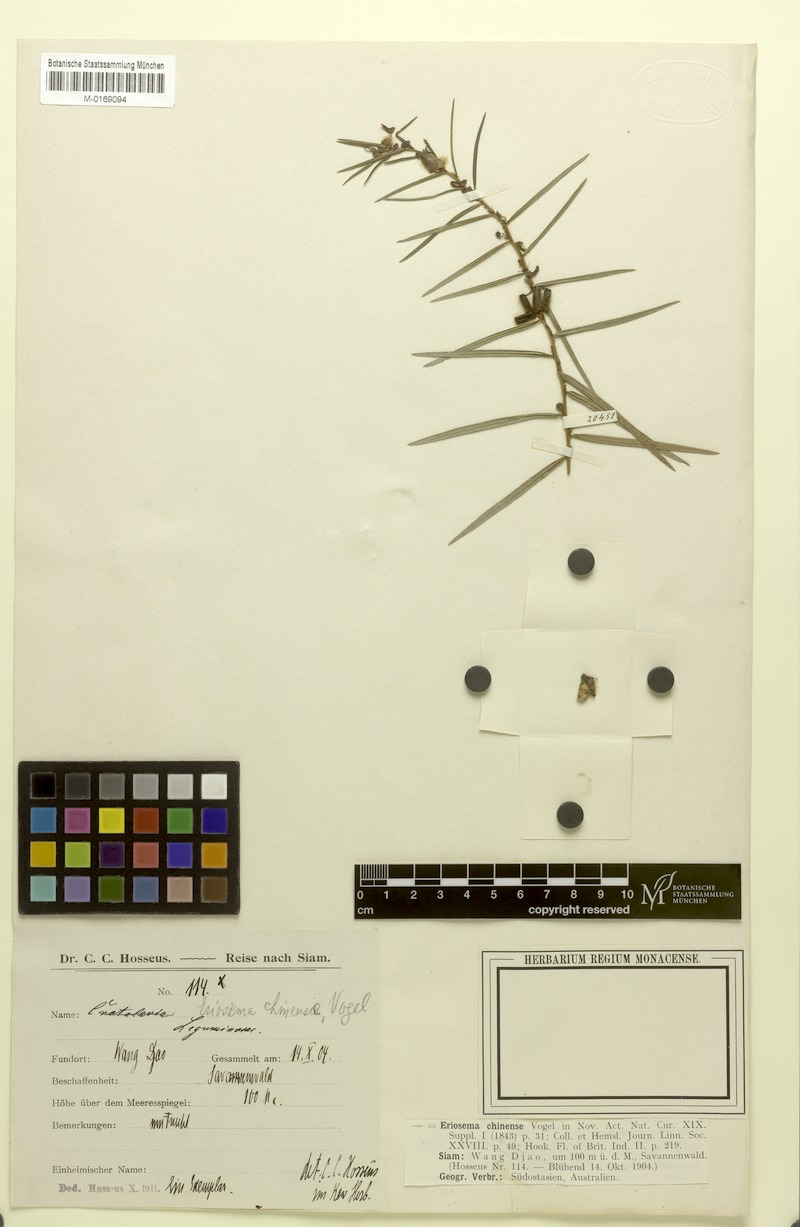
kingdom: Plantae
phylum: Tracheophyta
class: Magnoliopsida
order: Fabales
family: Fabaceae
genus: Eriosema
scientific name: Eriosema chinense
